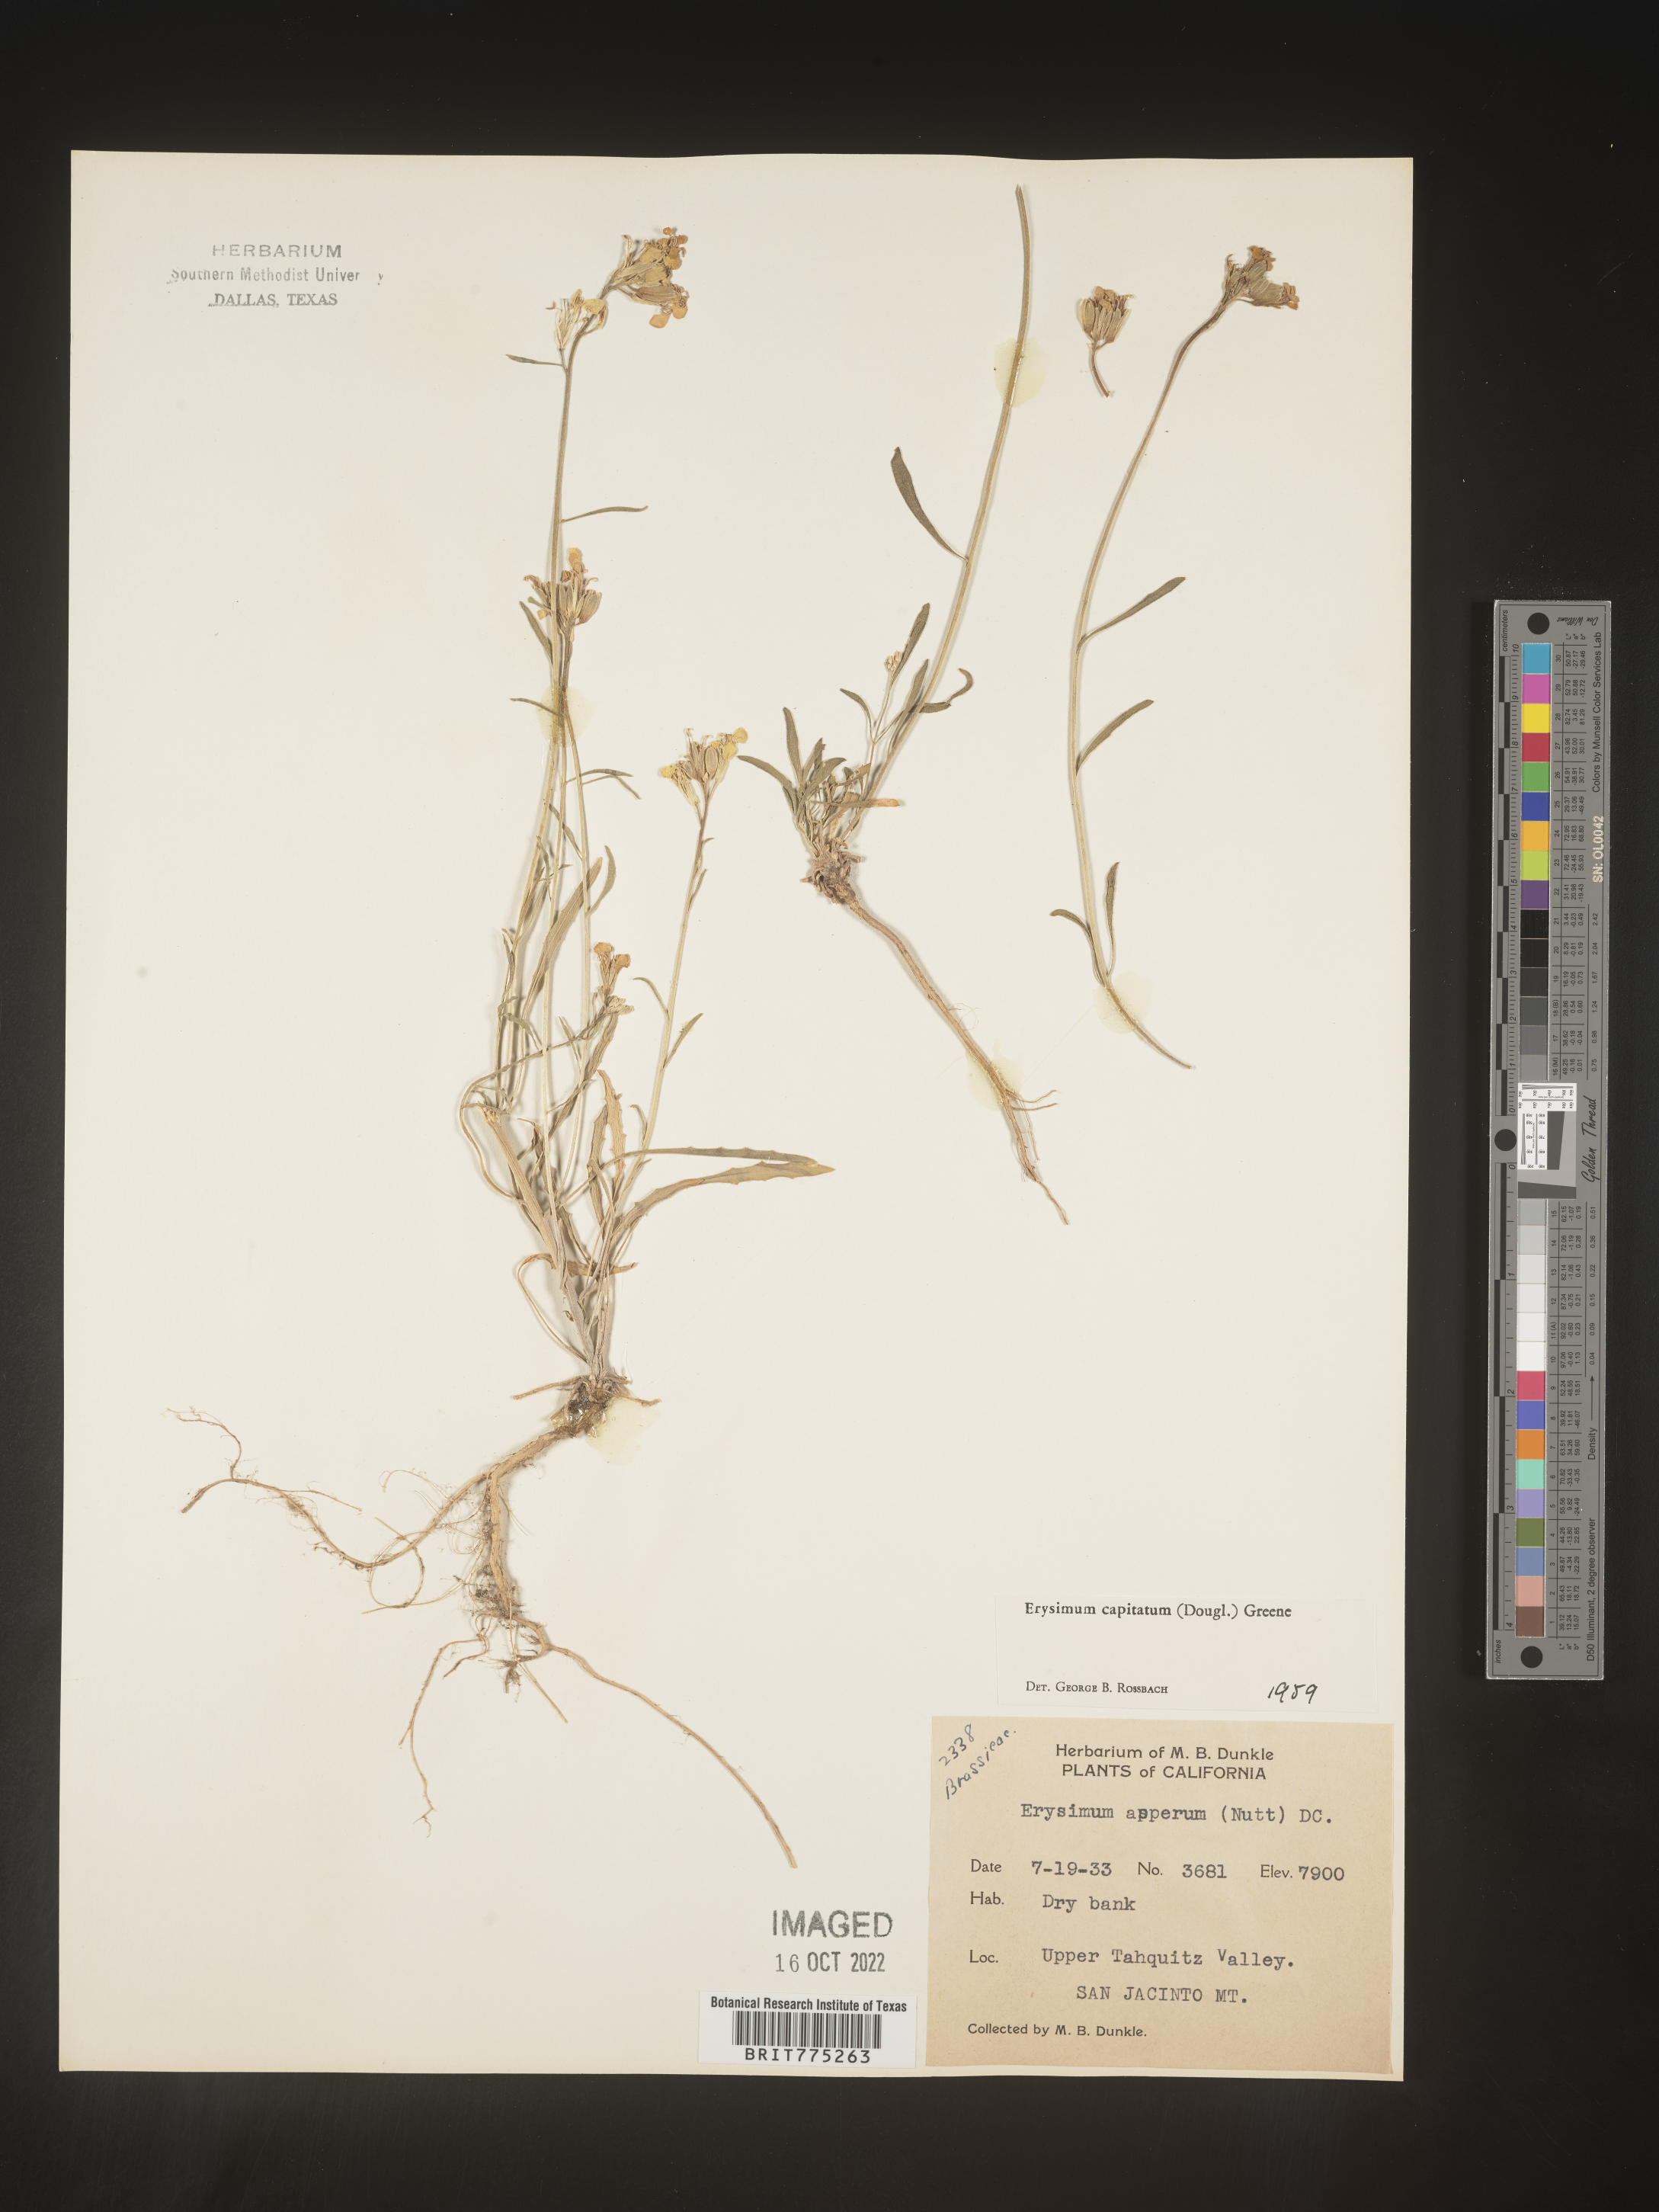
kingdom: Plantae
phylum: Tracheophyta
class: Magnoliopsida
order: Brassicales
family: Brassicaceae
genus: Erysimum
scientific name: Erysimum capitatum
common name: Western wallflower
